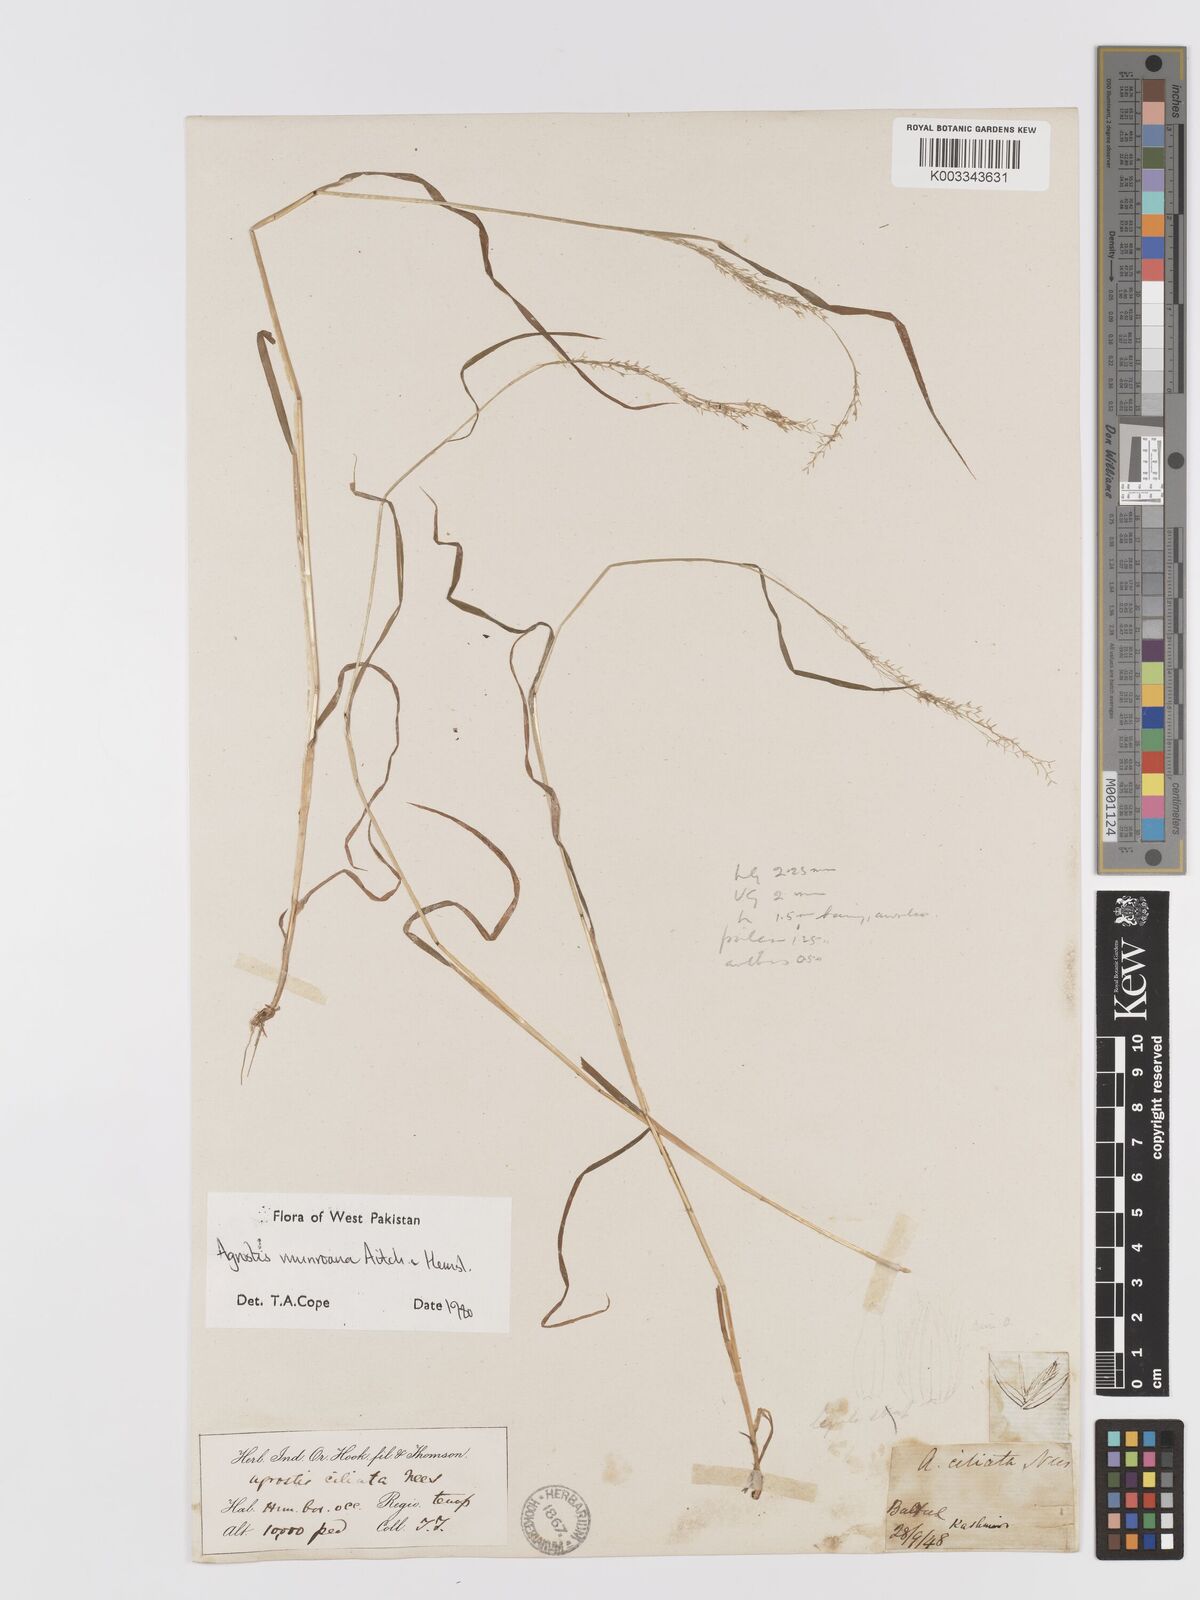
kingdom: Plantae
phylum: Tracheophyta
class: Liliopsida
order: Poales
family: Poaceae
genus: Agrostis
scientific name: Agrostis munroana
